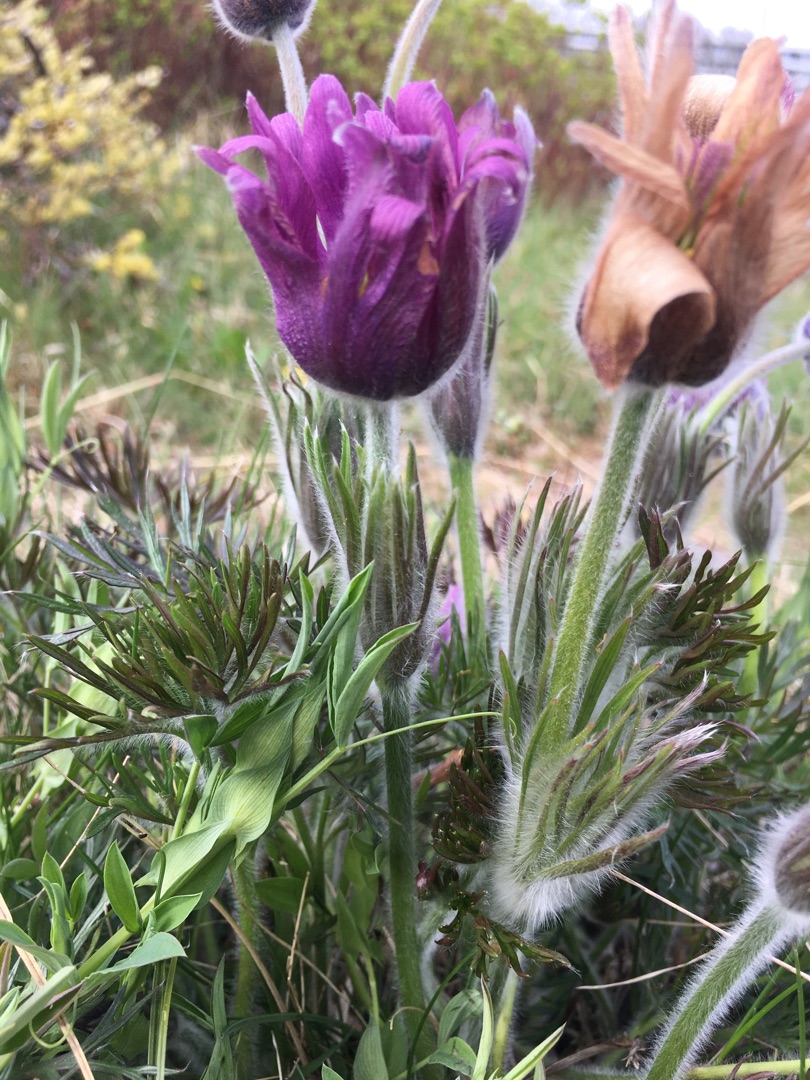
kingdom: Plantae
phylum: Tracheophyta
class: Magnoliopsida
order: Ranunculales
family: Ranunculaceae
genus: Pulsatilla
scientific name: Pulsatilla vulgaris
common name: Opret kobjælde
